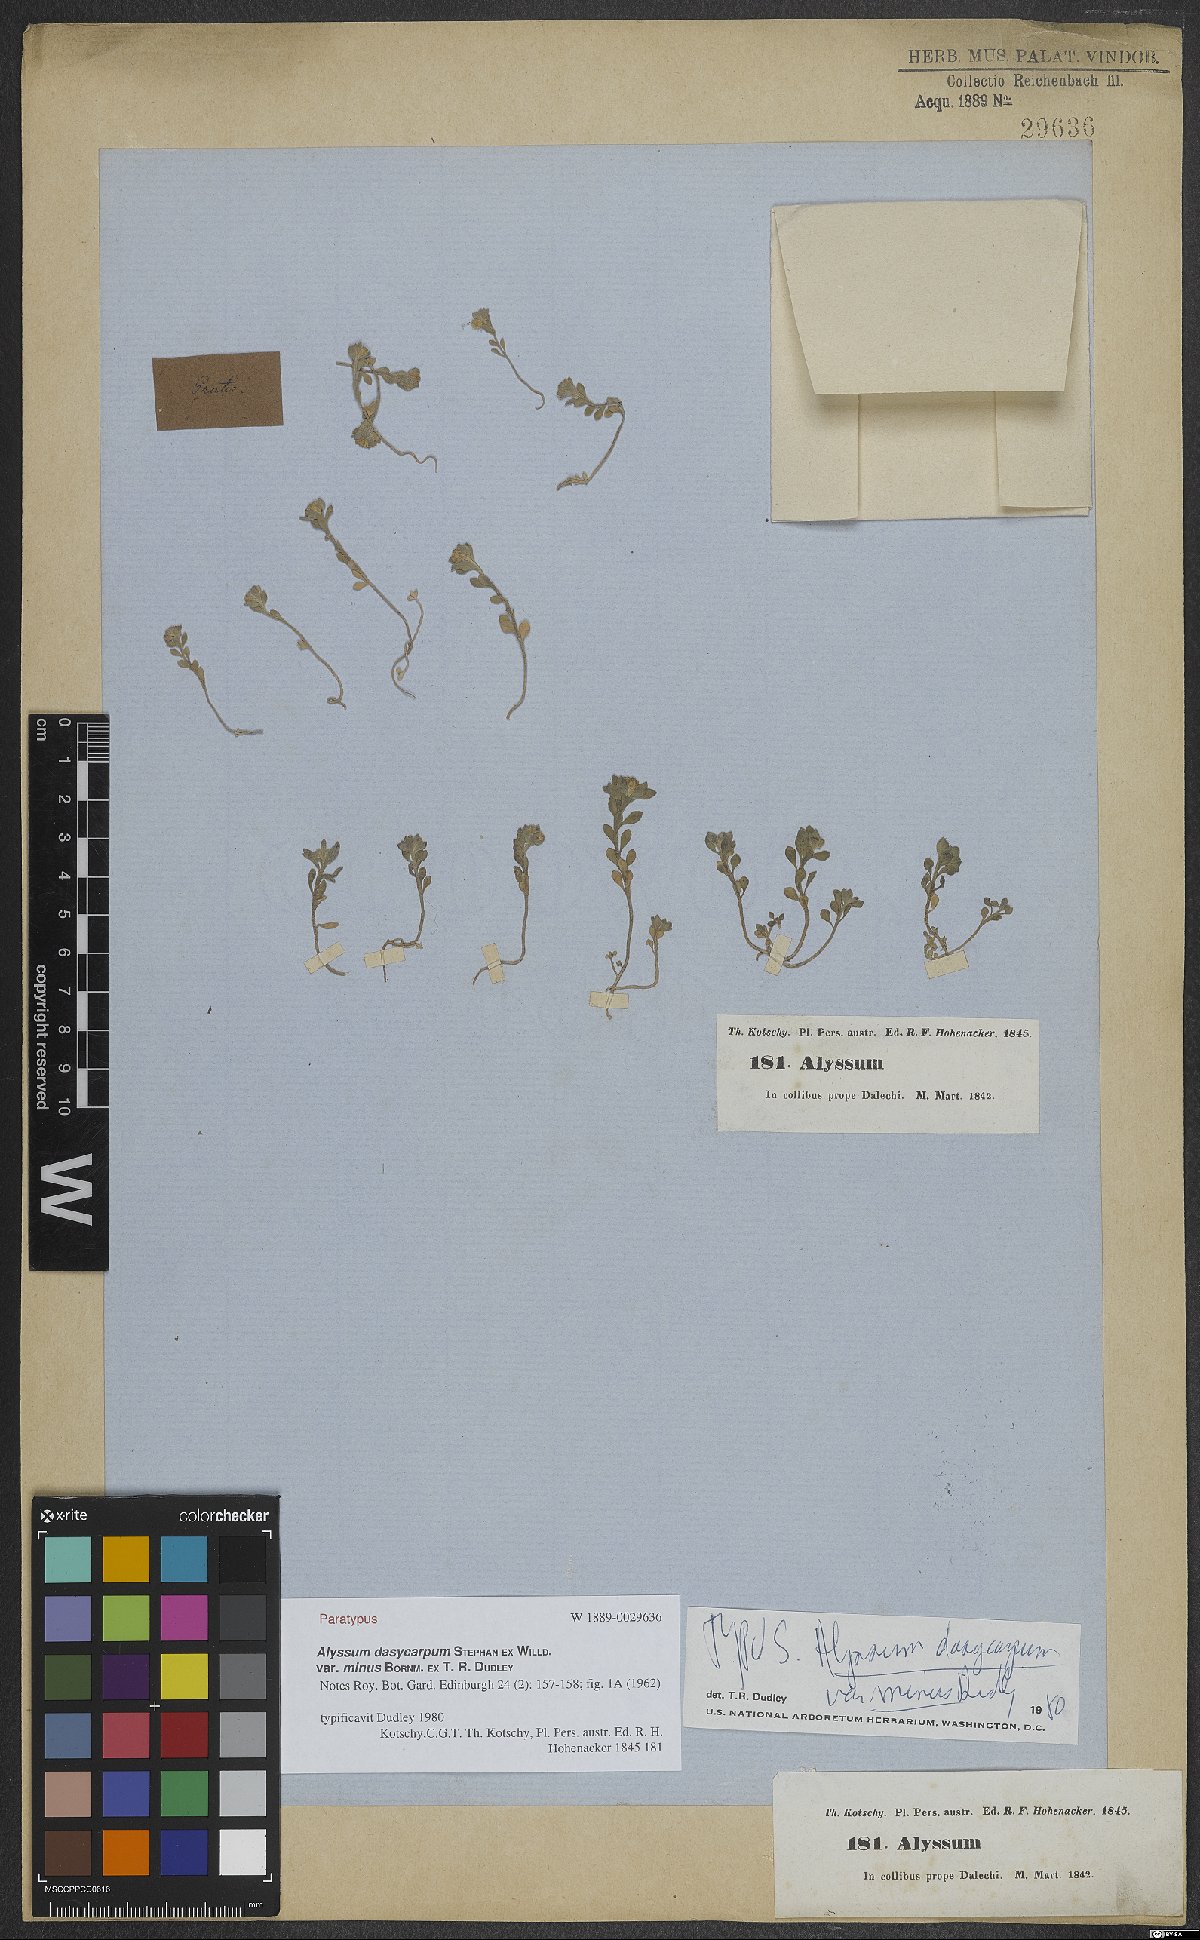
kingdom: Plantae
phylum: Tracheophyta
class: Magnoliopsida
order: Brassicales
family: Brassicaceae
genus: Alyssum
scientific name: Alyssum dasycarpum
